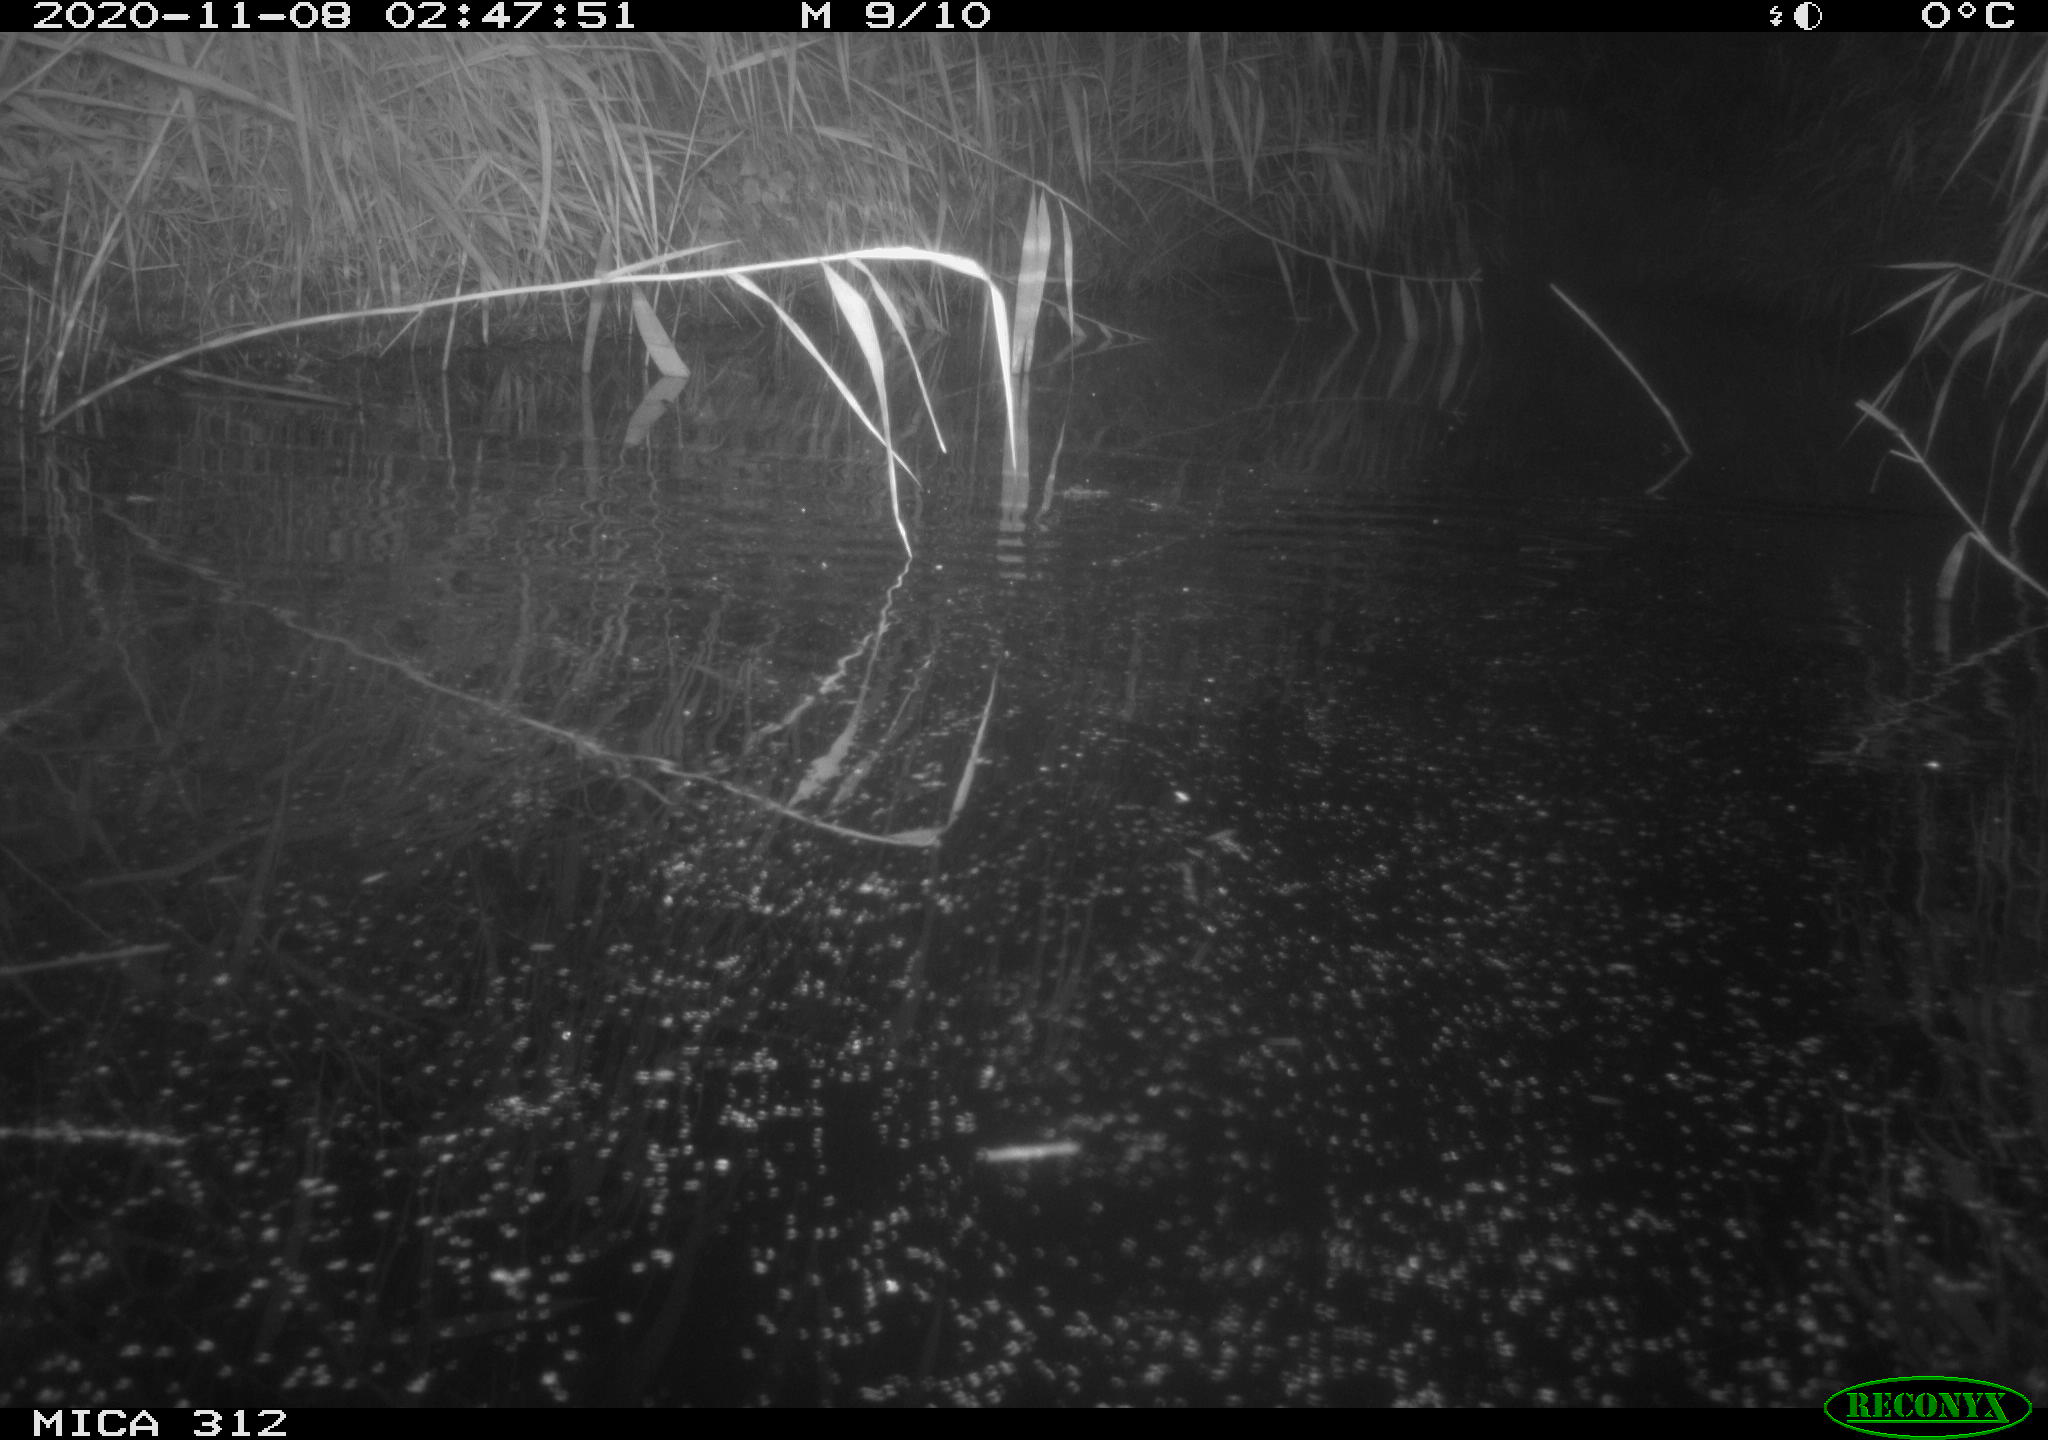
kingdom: Animalia
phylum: Chordata
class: Mammalia
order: Rodentia
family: Muridae
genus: Rattus
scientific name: Rattus norvegicus
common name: Brown rat
